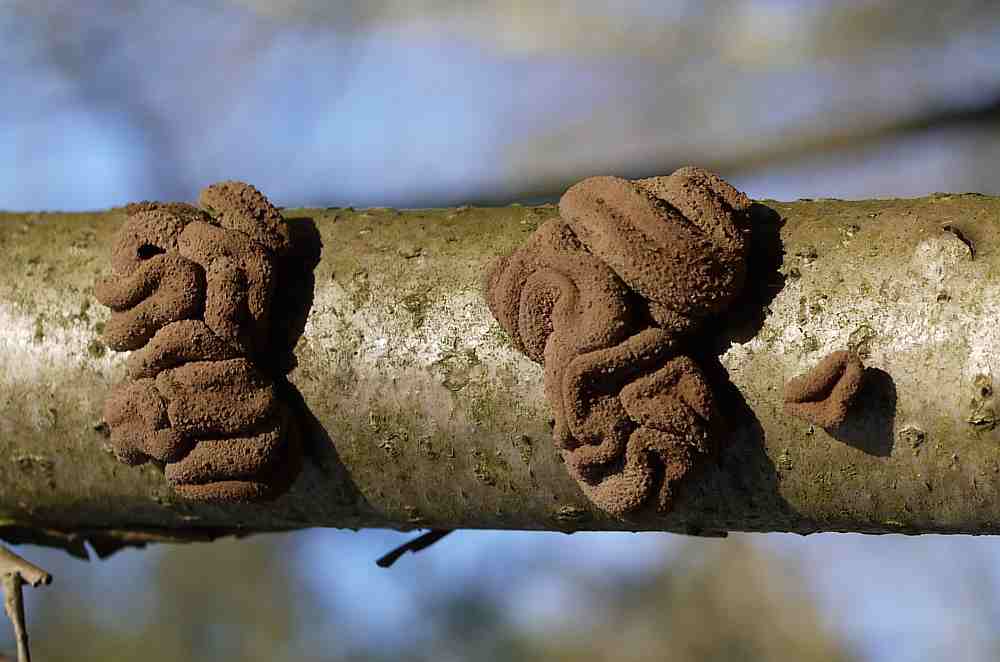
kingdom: Fungi
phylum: Ascomycota
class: Leotiomycetes
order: Helotiales
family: Cenangiaceae
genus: Encoelia
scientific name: Encoelia furfuracea
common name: hassel-læderskive
